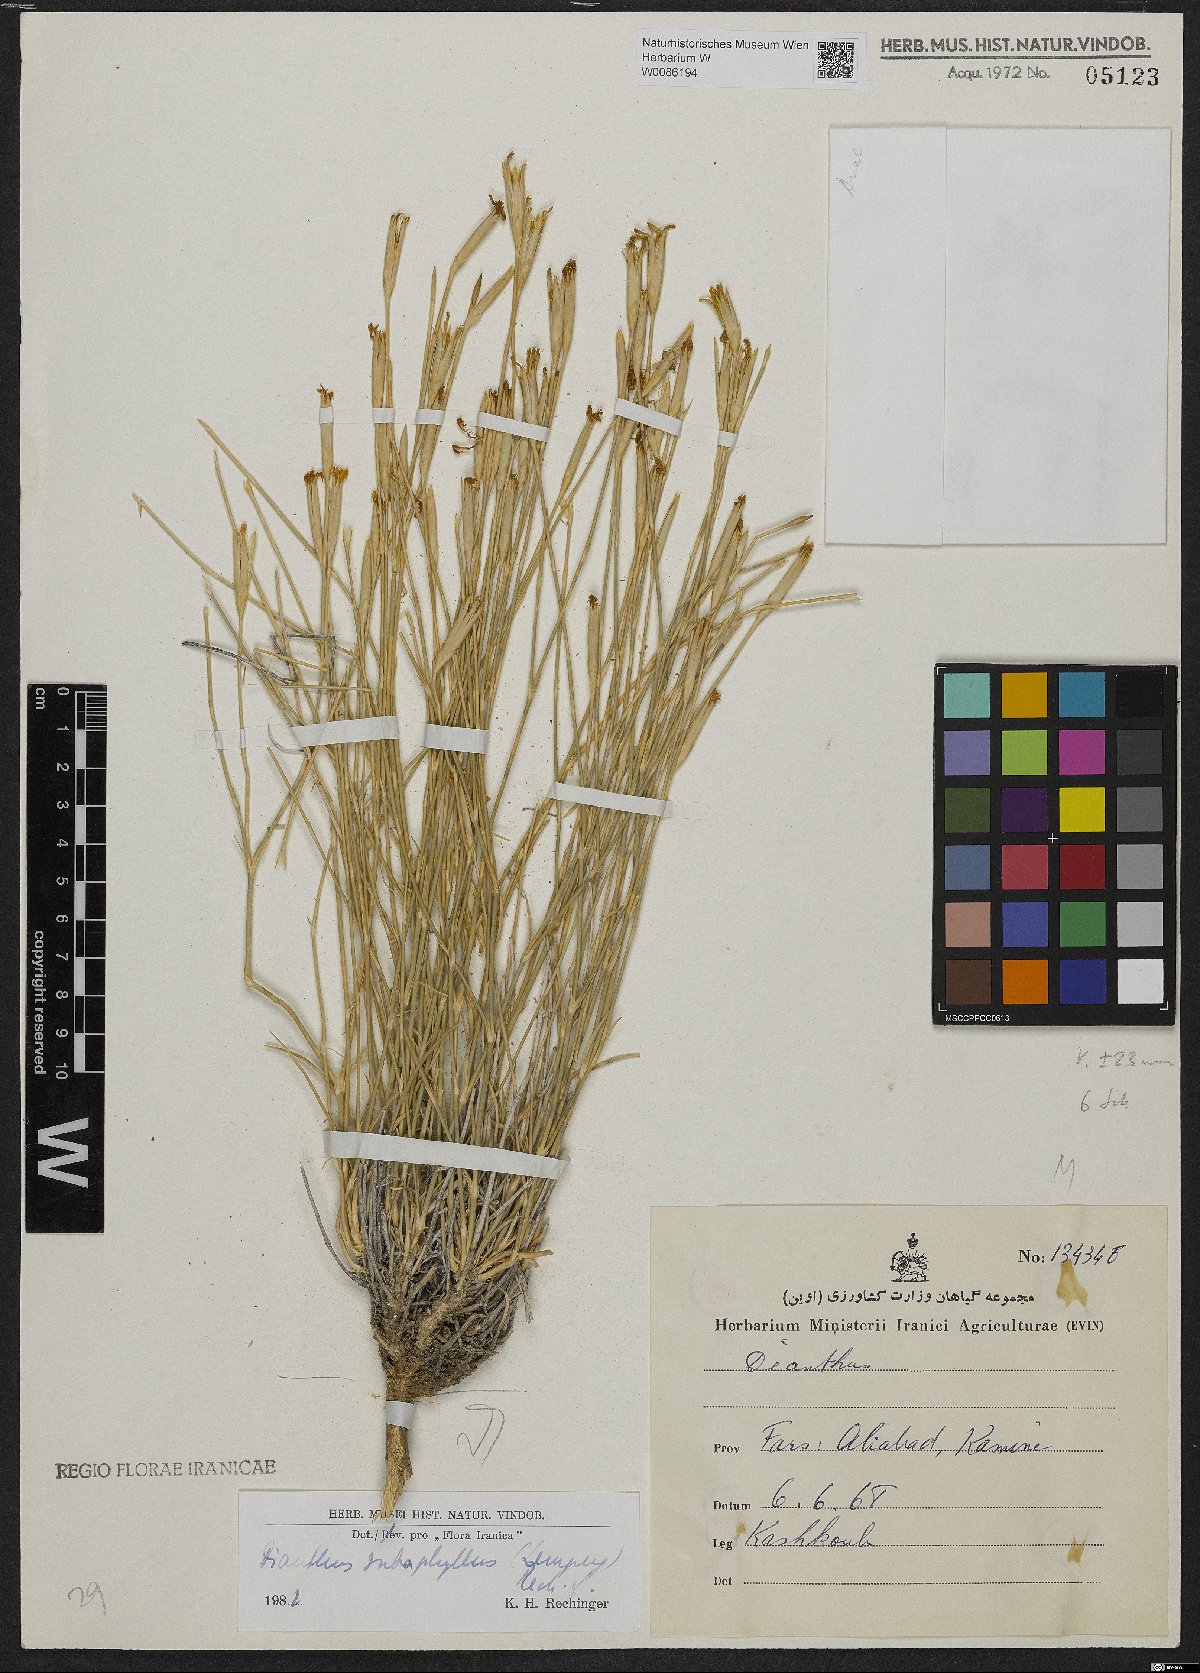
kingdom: Plantae
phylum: Tracheophyta
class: Magnoliopsida
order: Caryophyllales
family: Caryophyllaceae
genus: Dianthus
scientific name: Dianthus subaphyllus
